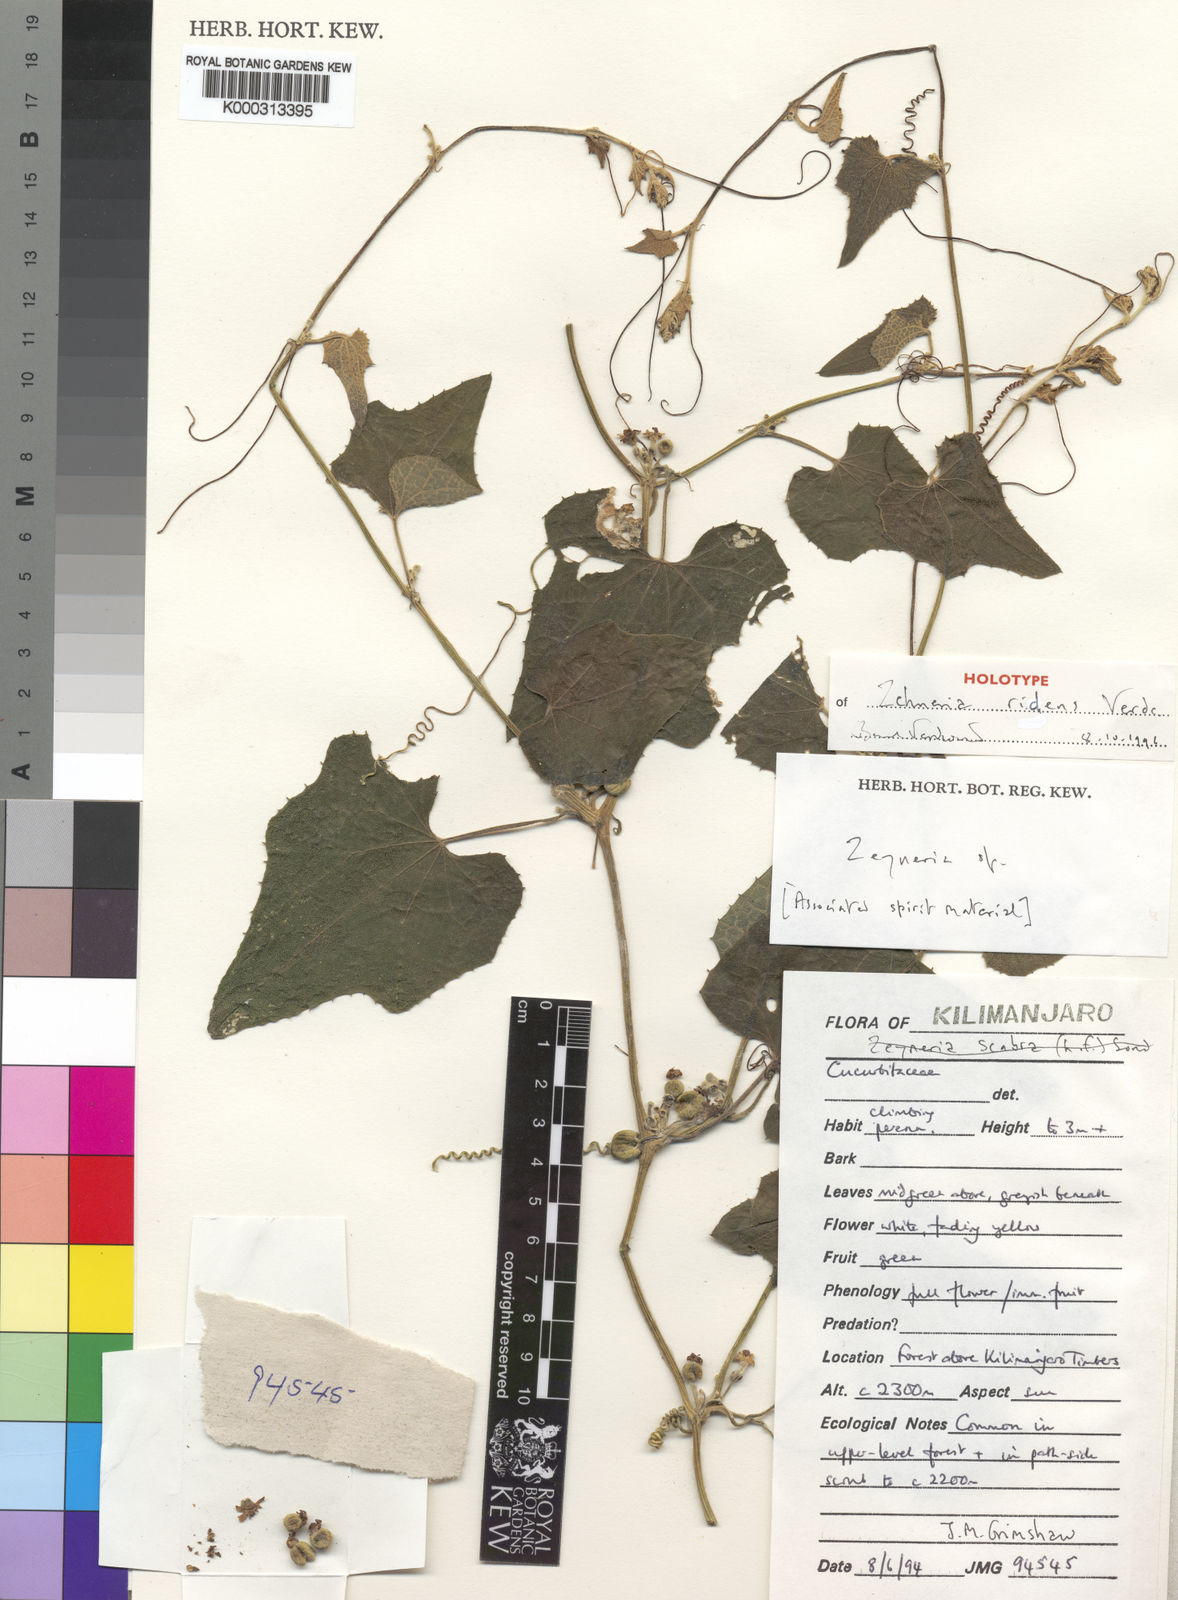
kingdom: Plantae
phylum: Tracheophyta
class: Magnoliopsida
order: Cucurbitales
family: Cucurbitaceae
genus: Zehneria
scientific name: Zehneria ridens
